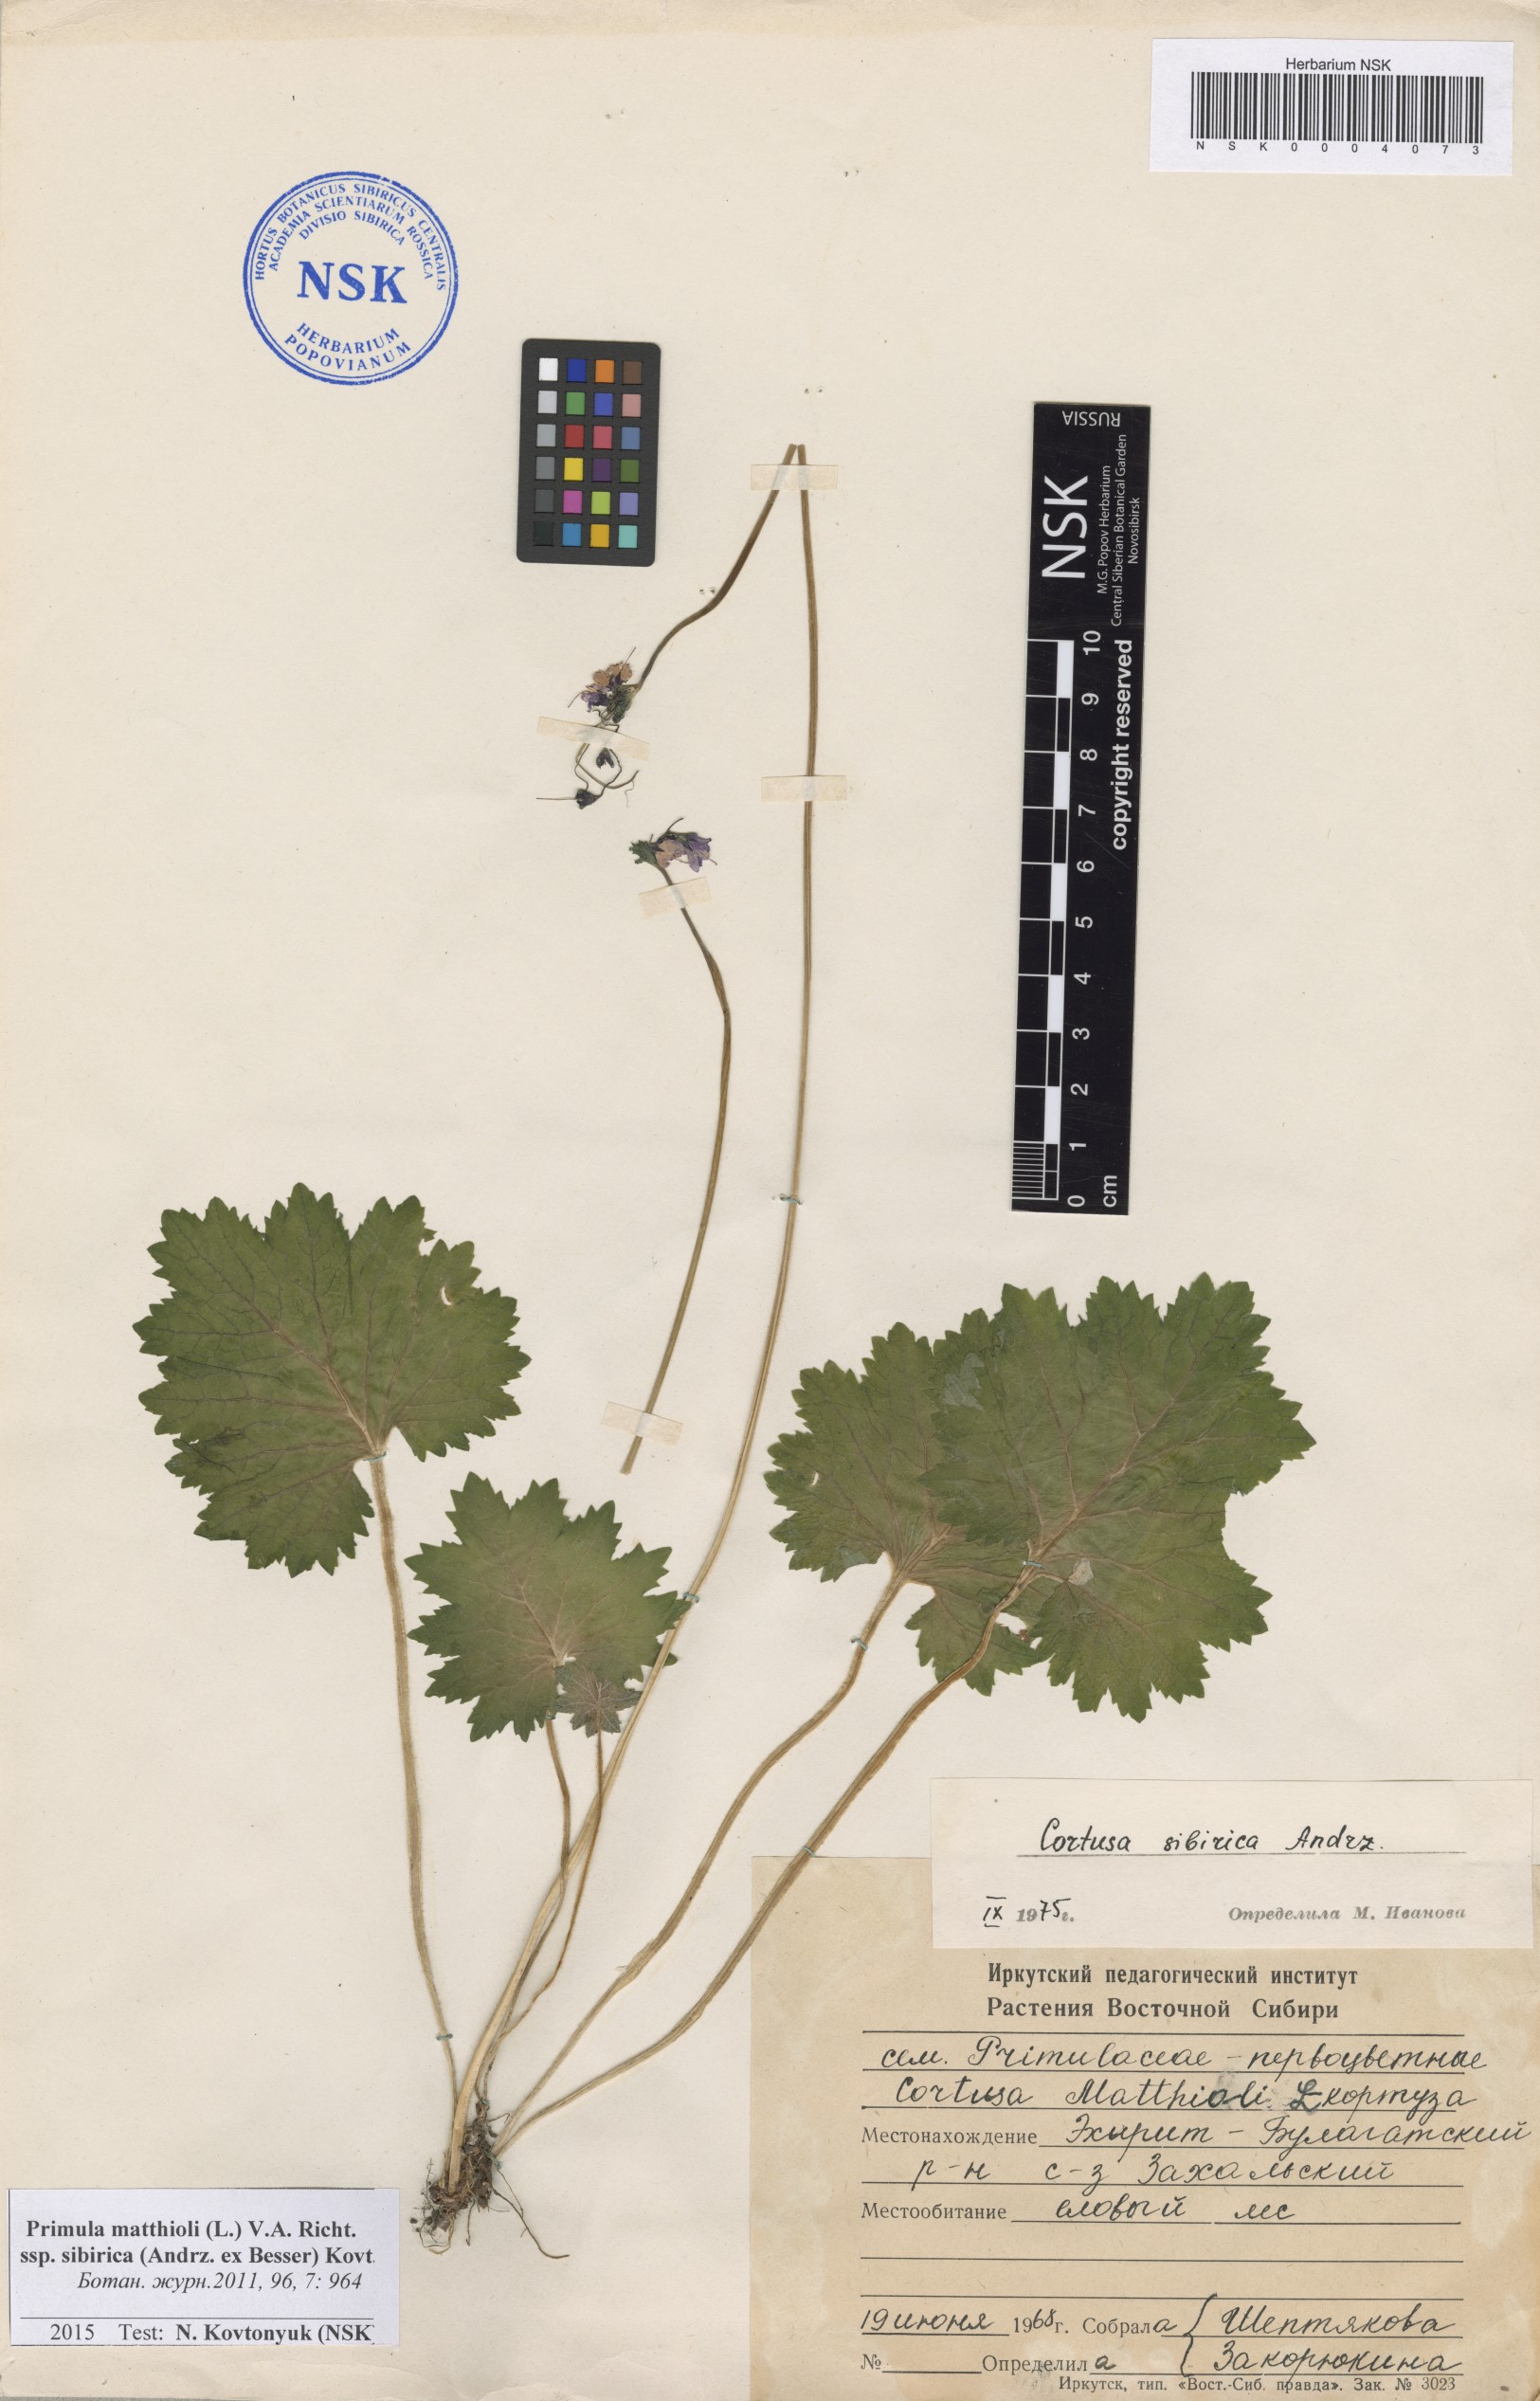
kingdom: Plantae
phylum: Tracheophyta
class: Magnoliopsida
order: Ericales
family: Primulaceae
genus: Primula
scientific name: Primula matthioli
